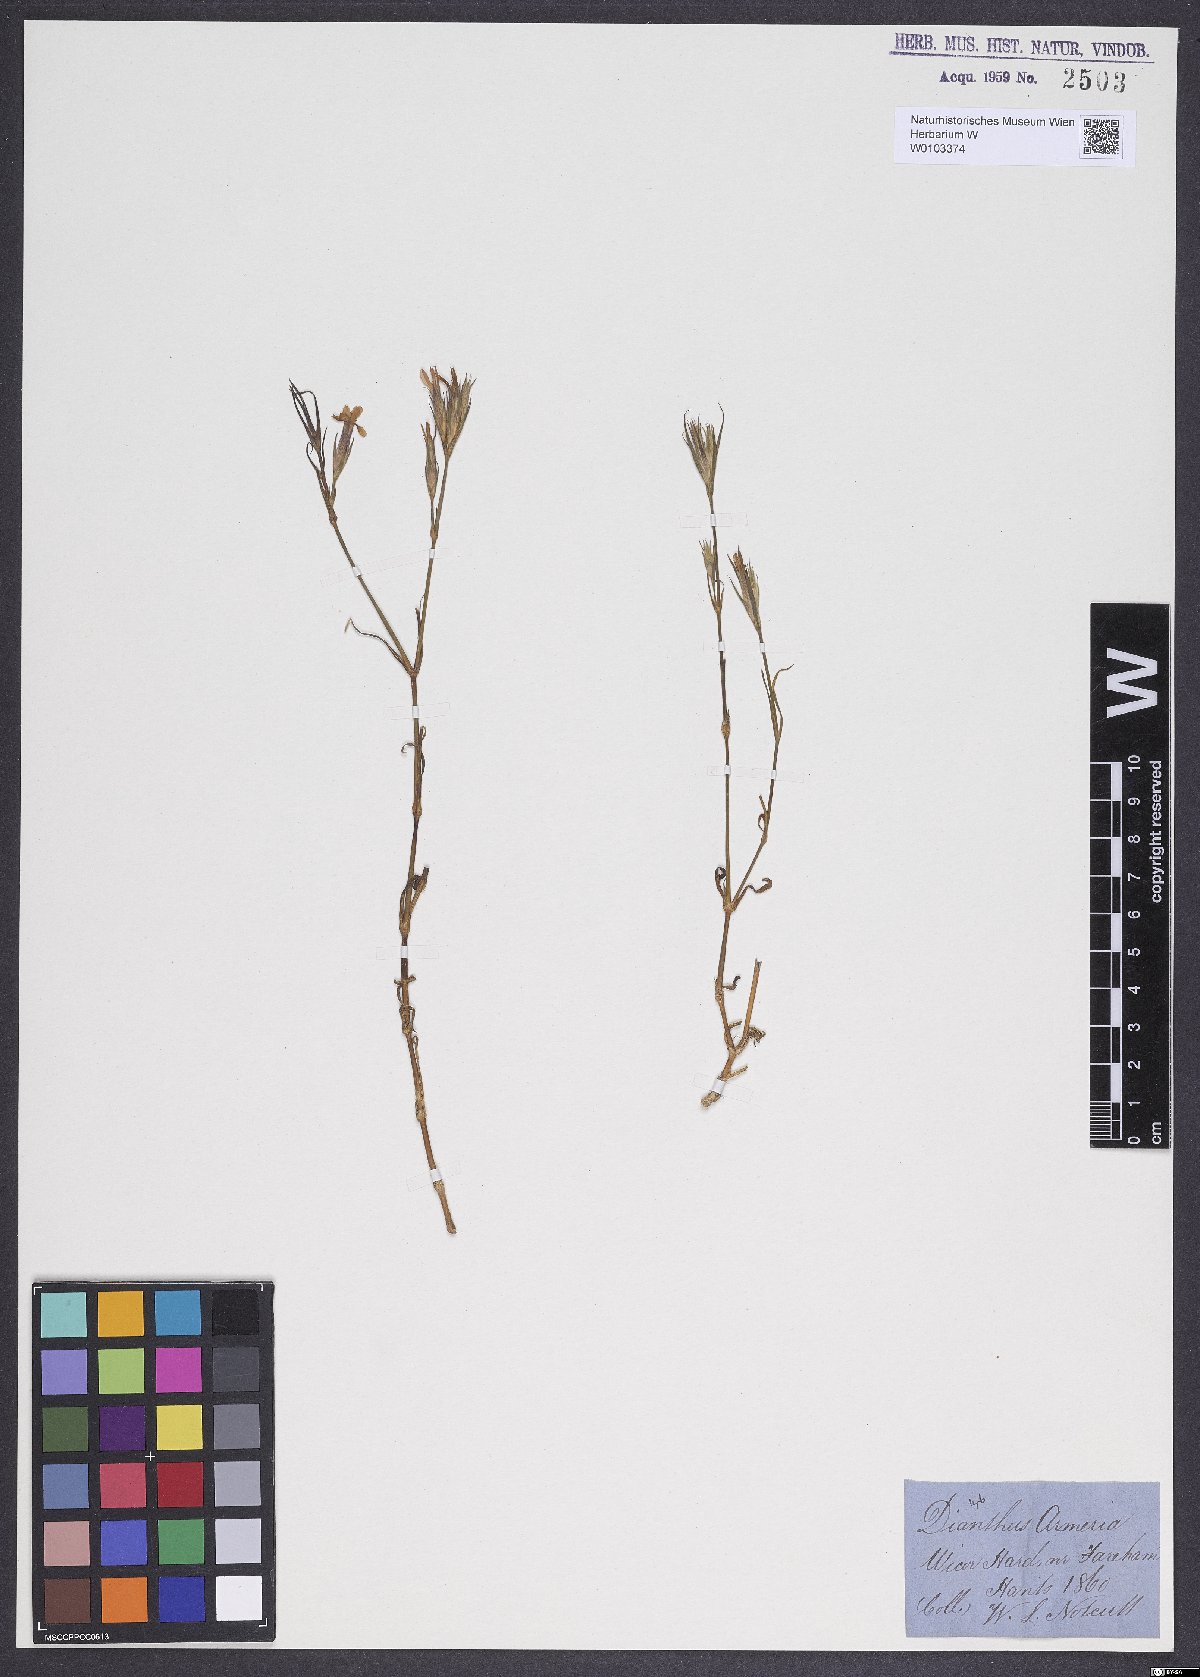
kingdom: Plantae
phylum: Tracheophyta
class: Magnoliopsida
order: Caryophyllales
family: Caryophyllaceae
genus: Dianthus
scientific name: Dianthus armeria
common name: Deptford pink
